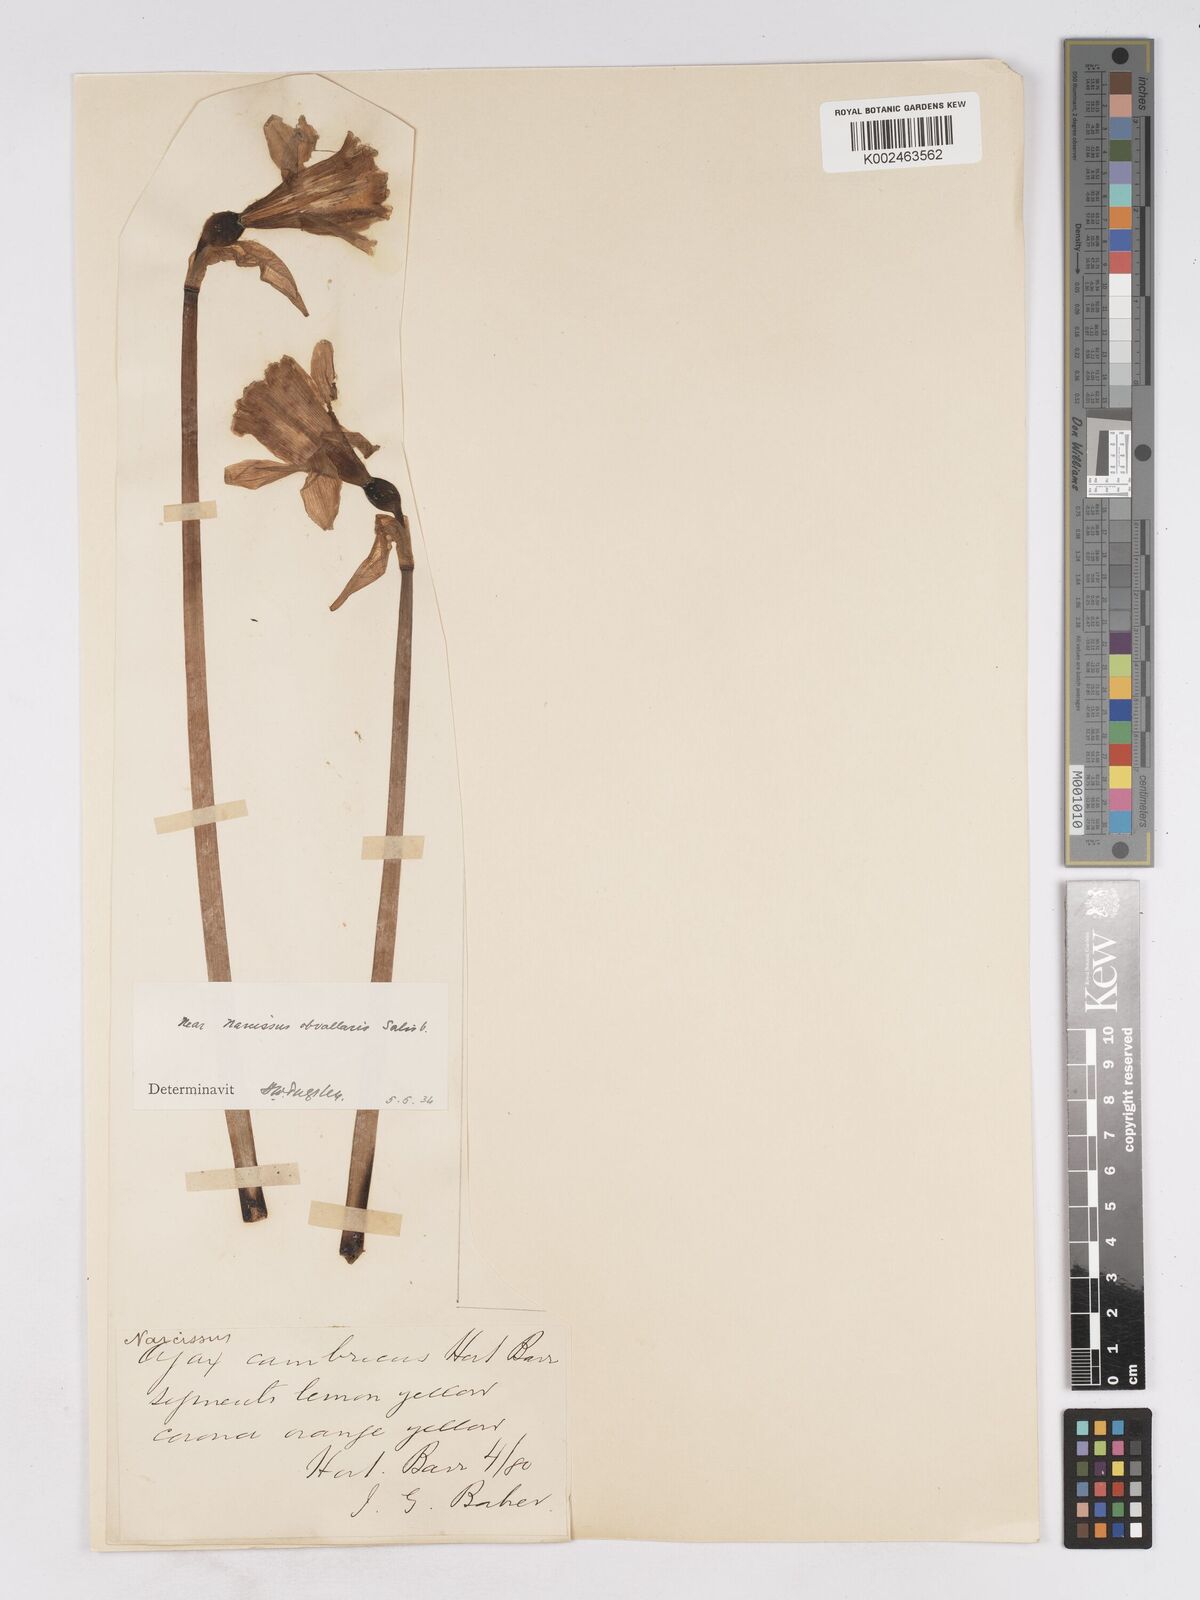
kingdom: Plantae
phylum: Tracheophyta
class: Liliopsida
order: Asparagales
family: Amaryllidaceae
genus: Narcissus
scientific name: Narcissus hispanicus
